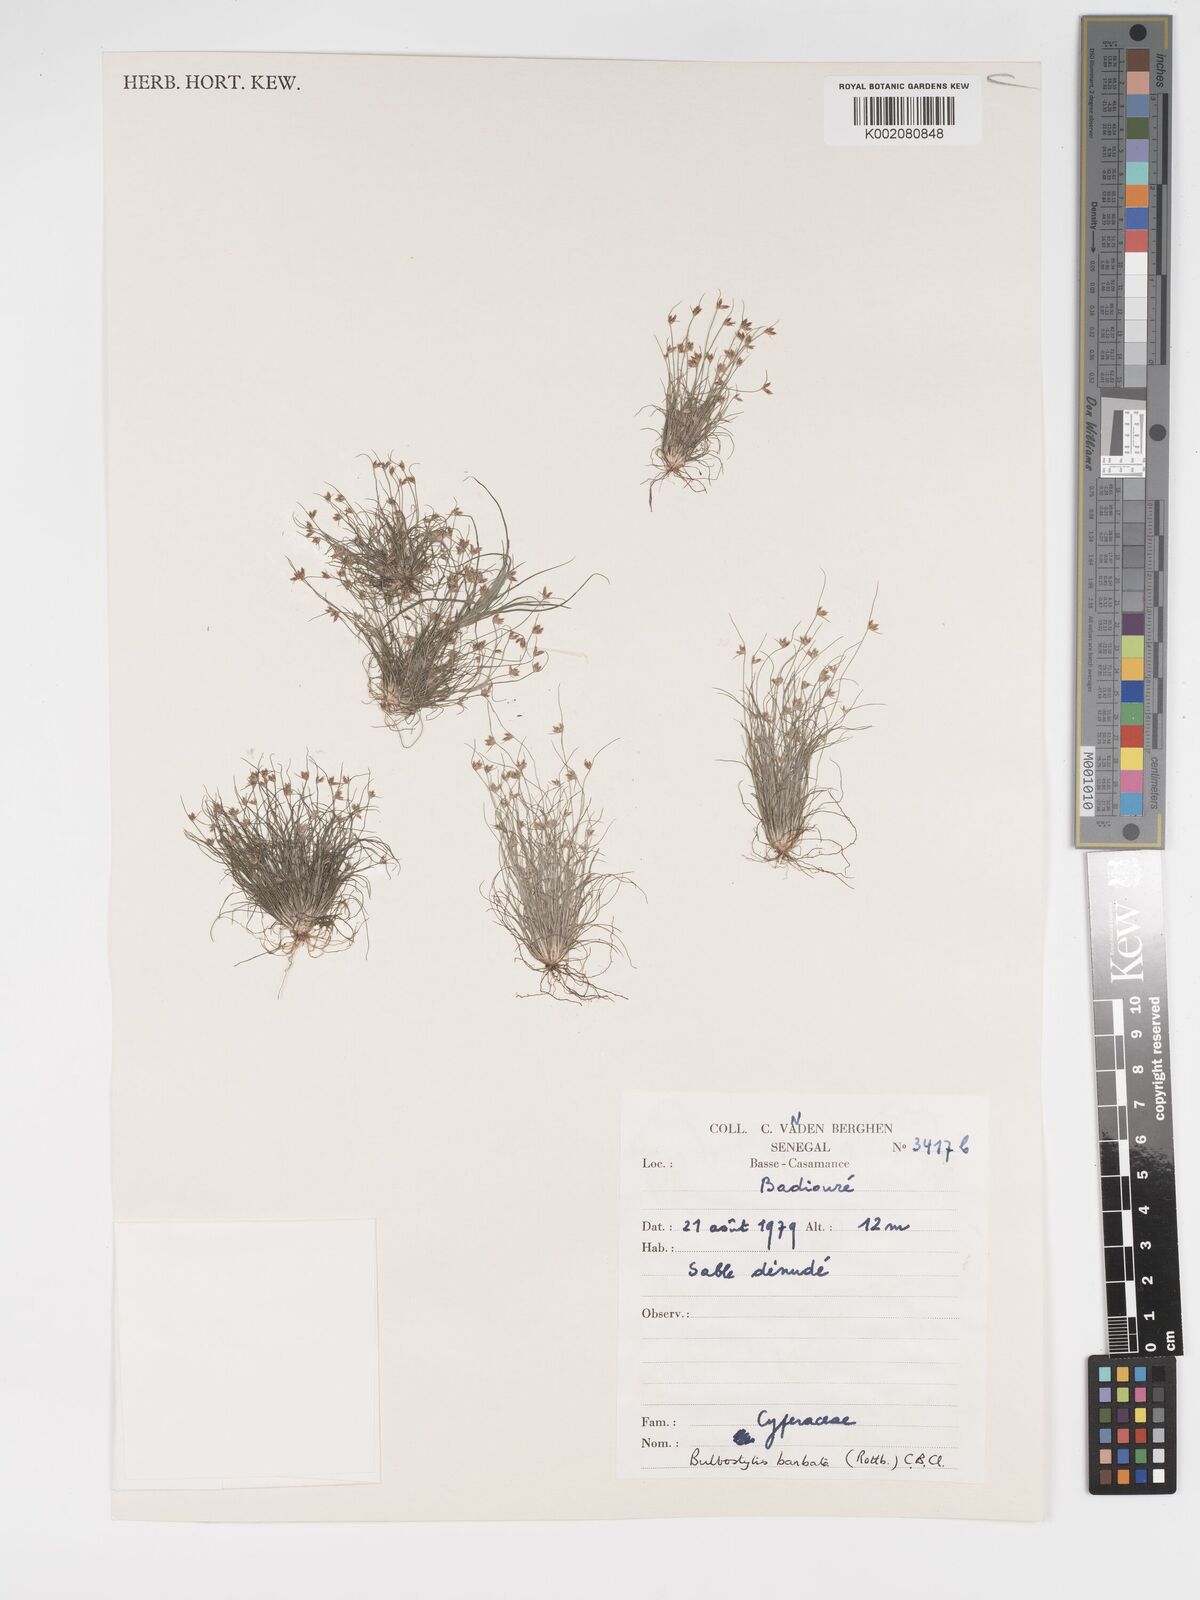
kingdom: Plantae
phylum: Tracheophyta
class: Liliopsida
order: Poales
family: Cyperaceae
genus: Bulbostylis
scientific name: Bulbostylis barbata
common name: Watergrass
